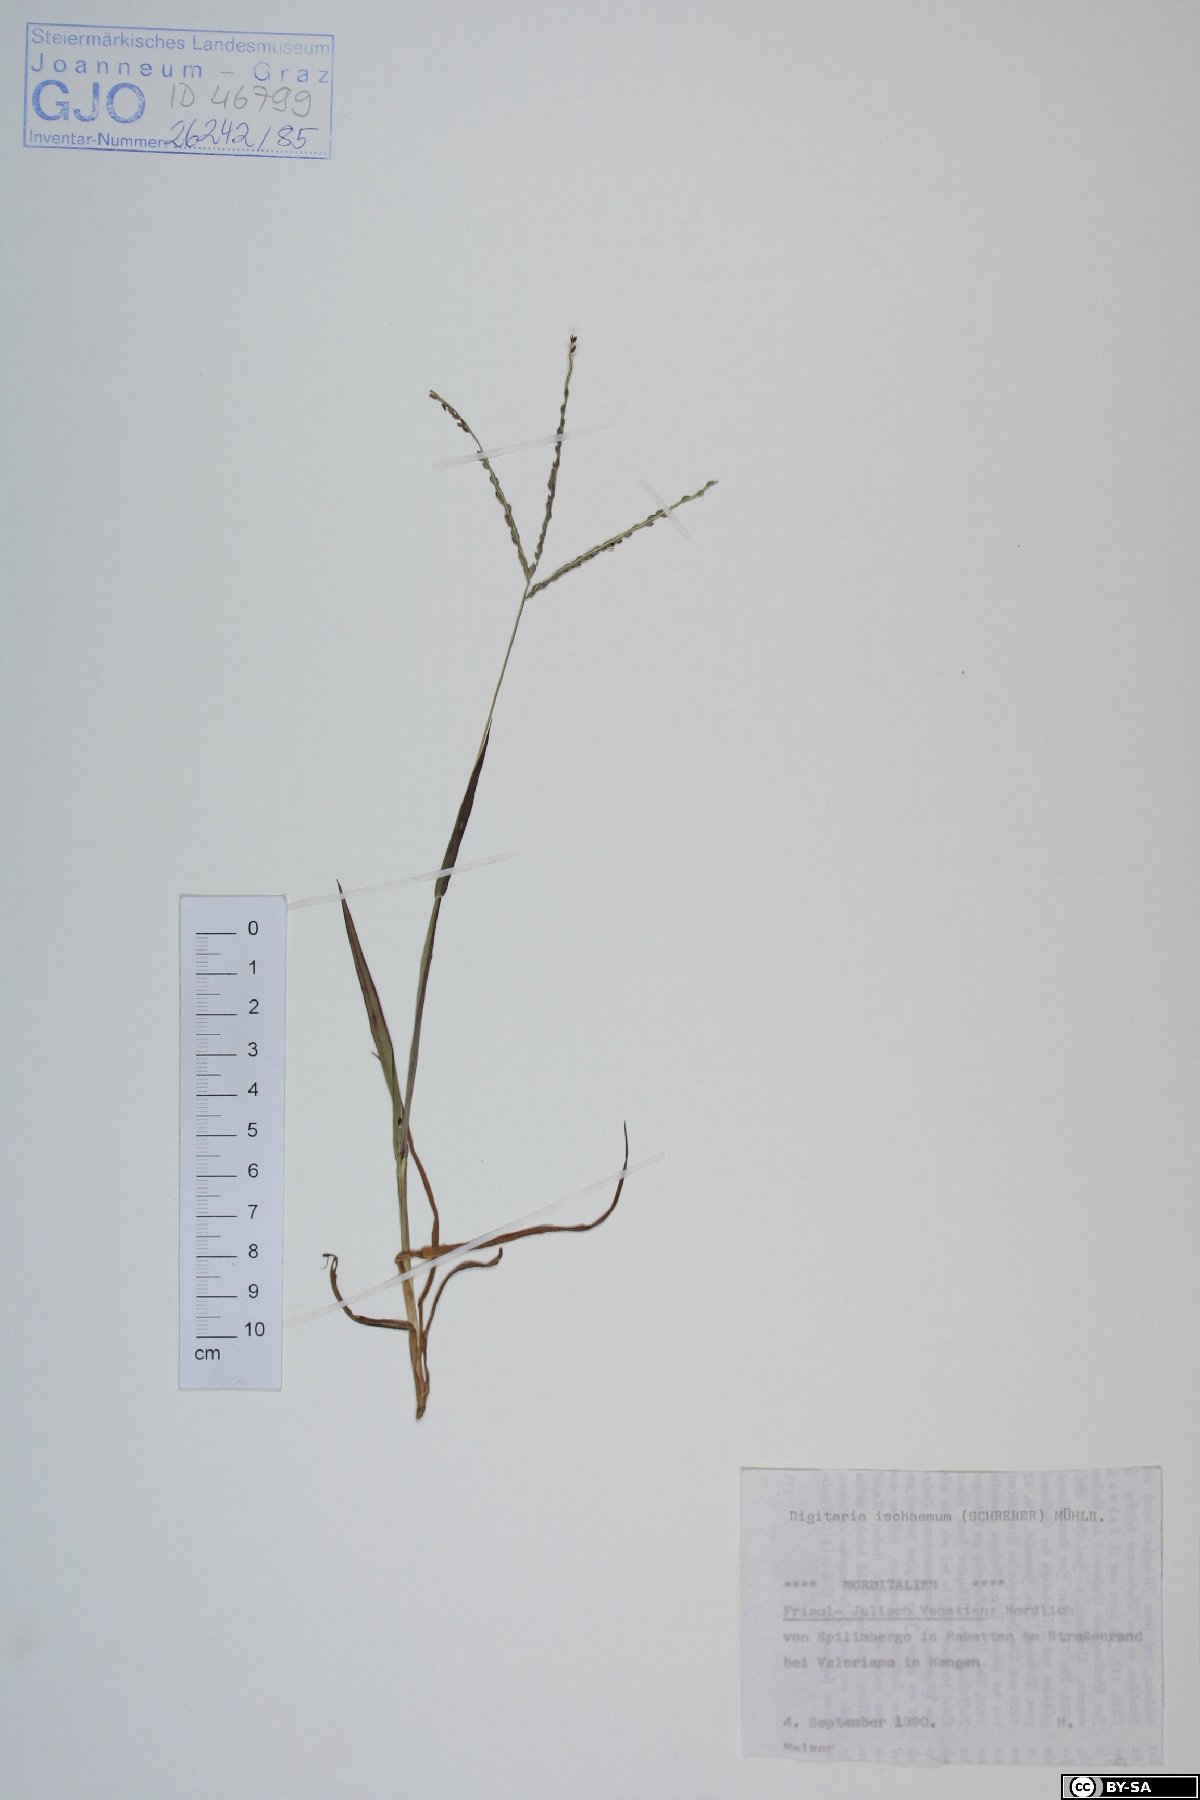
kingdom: Plantae
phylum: Tracheophyta
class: Liliopsida
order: Poales
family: Poaceae
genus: Digitaria
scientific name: Digitaria ischaemum
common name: Smooth crabgrass
